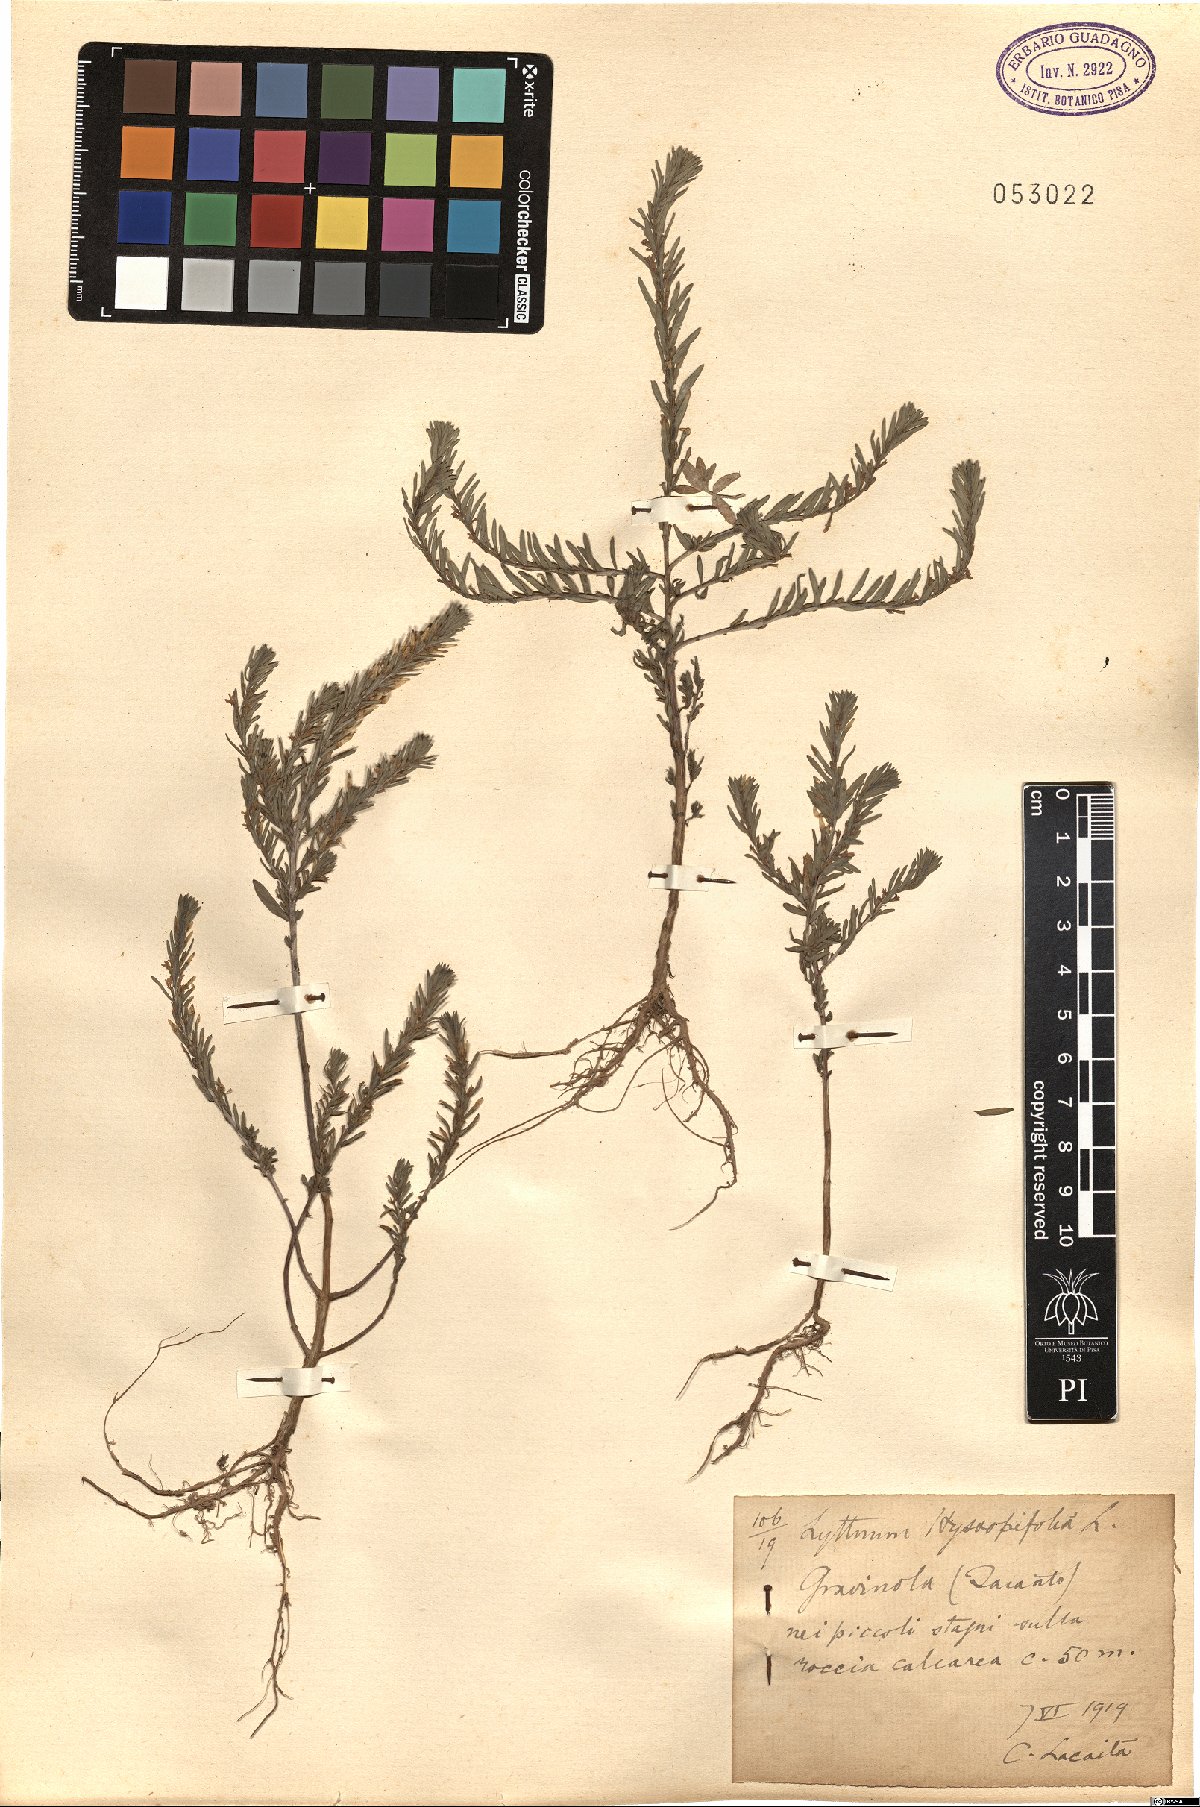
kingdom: Plantae
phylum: Tracheophyta
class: Magnoliopsida
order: Myrtales
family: Lythraceae
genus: Lythrum
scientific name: Lythrum hyssopifolia
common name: Grass-poly
